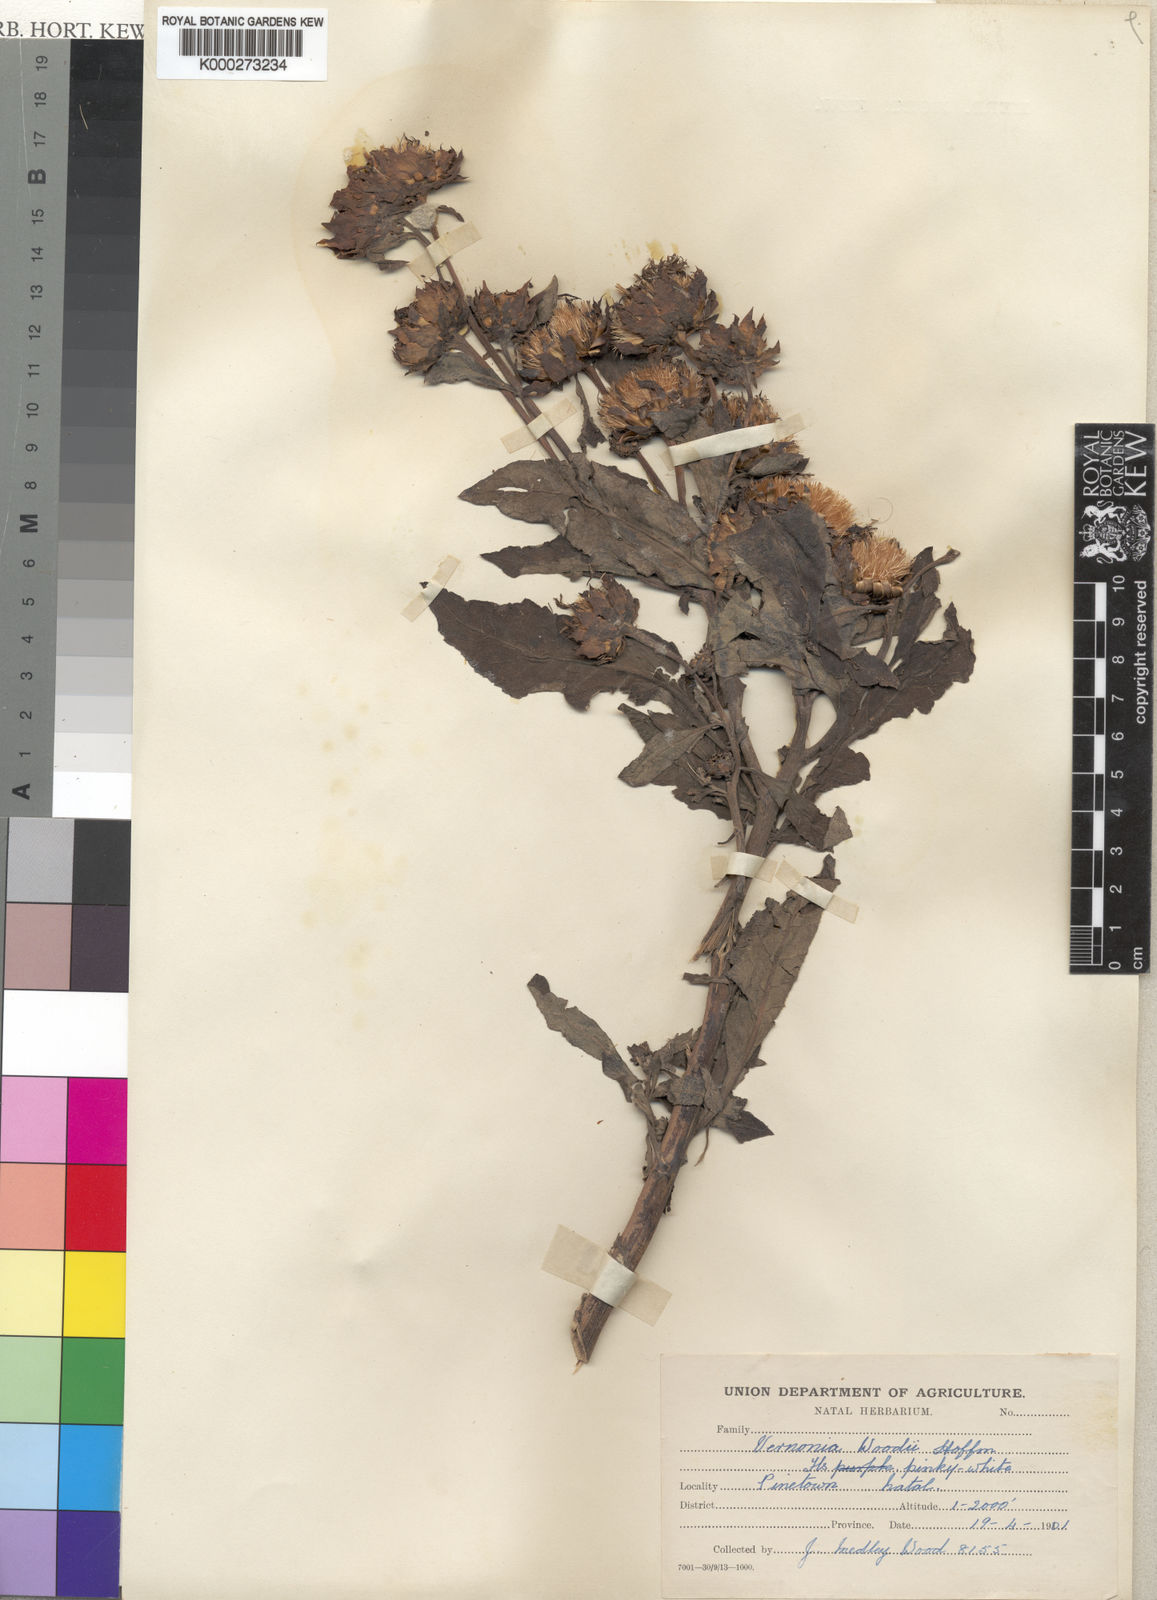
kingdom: Plantae
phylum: Tracheophyta
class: Magnoliopsida
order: Asterales
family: Asteraceae
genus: Baccharoides
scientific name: Baccharoides adoensis
